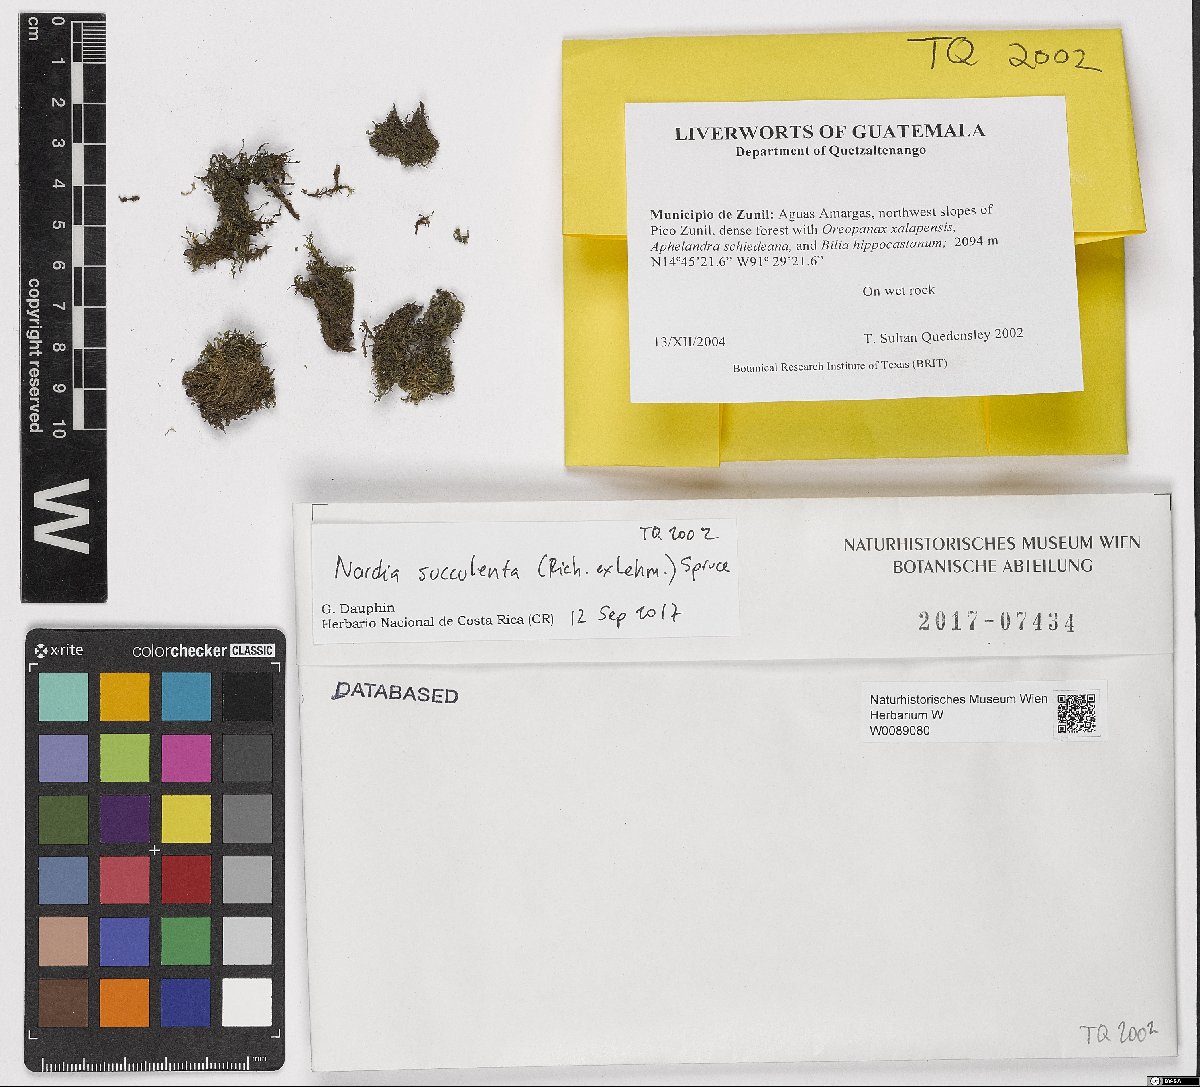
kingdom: Plantae
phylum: Marchantiophyta
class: Jungermanniopsida
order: Jungermanniales
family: Gymnomitriaceae
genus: Nardia
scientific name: Nardia succulenta
